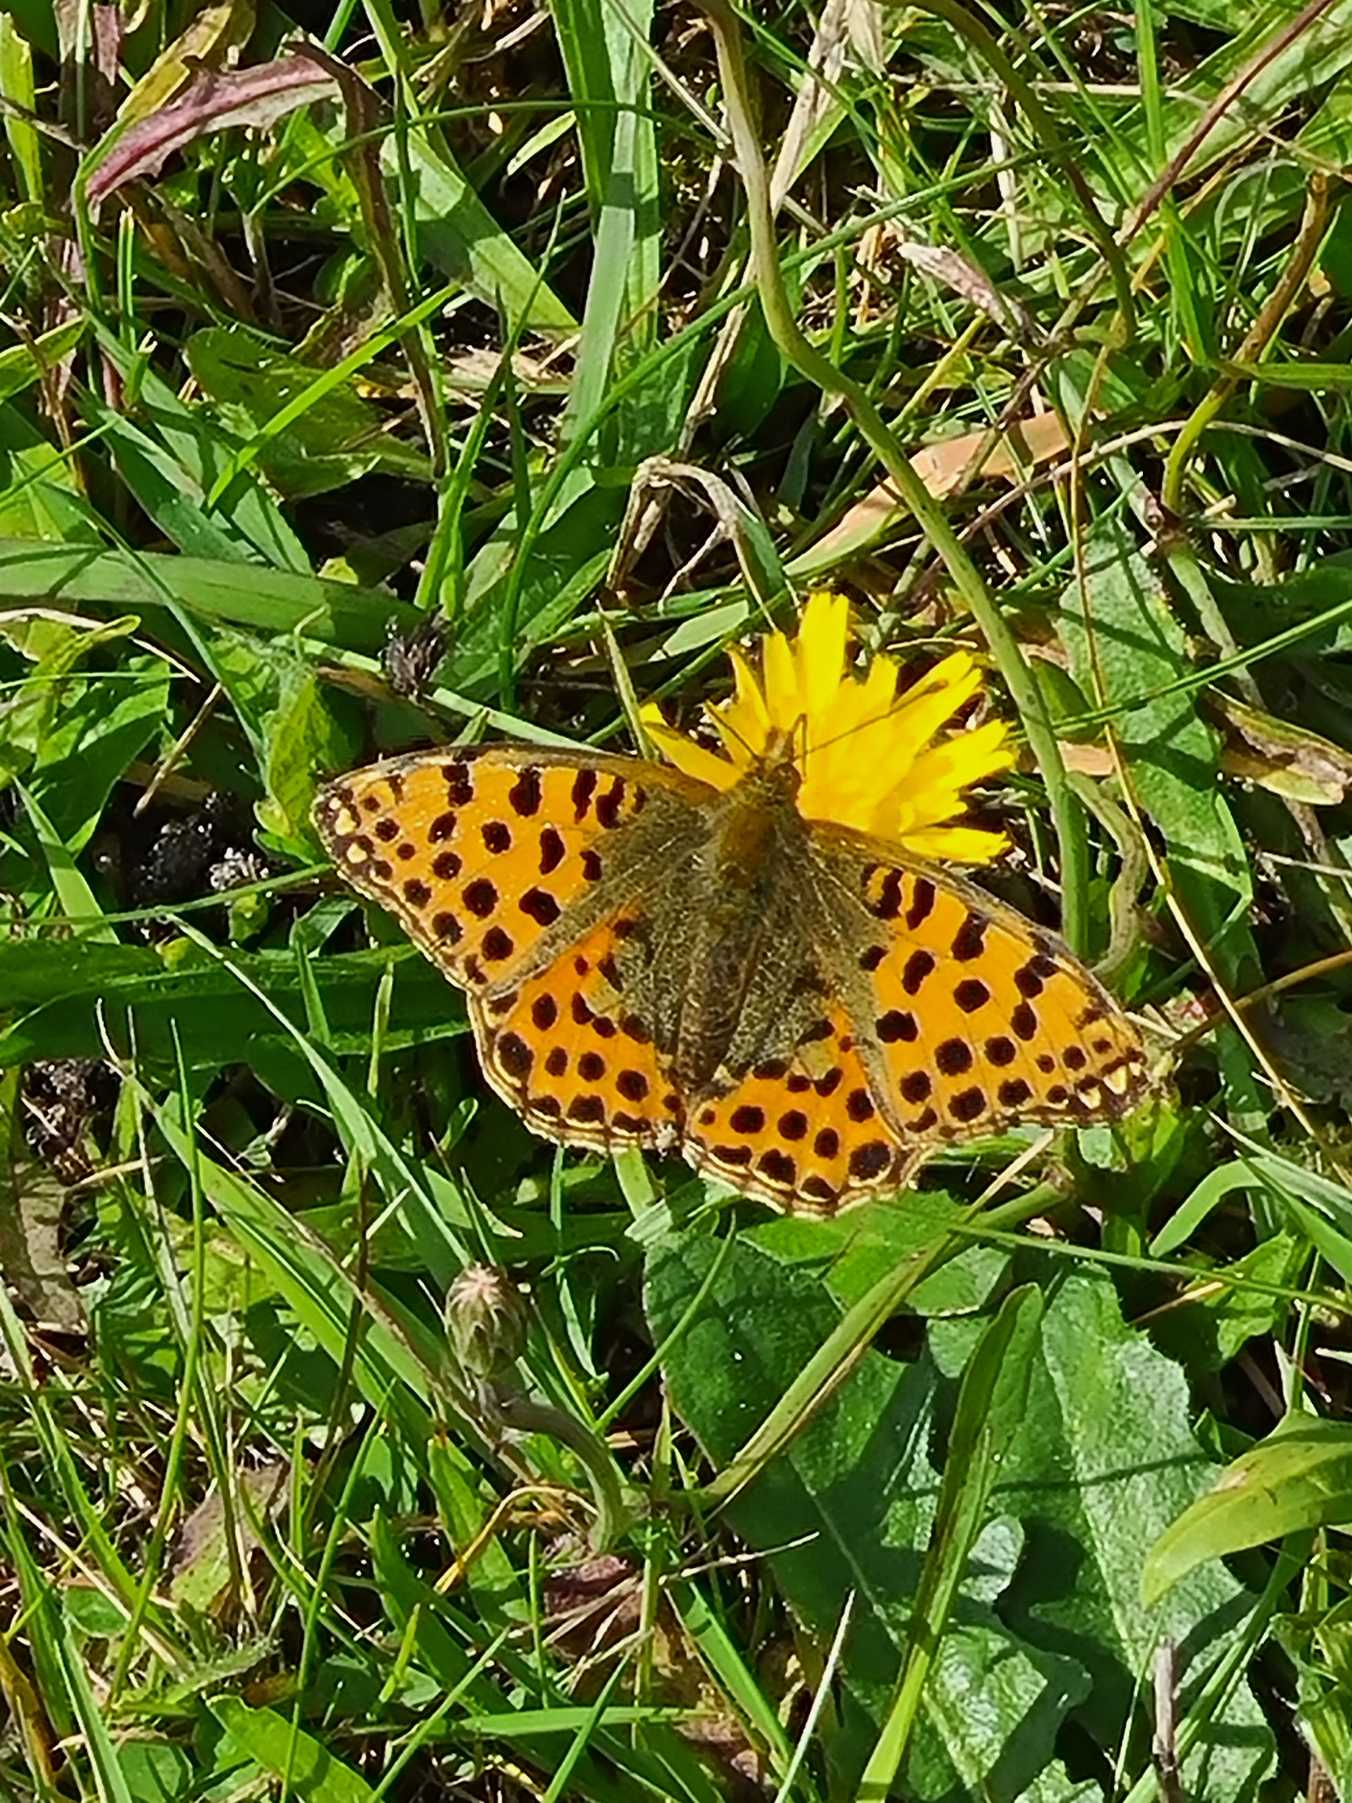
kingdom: Animalia
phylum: Arthropoda
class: Insecta
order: Lepidoptera
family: Nymphalidae
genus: Issoria
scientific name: Issoria lathonia
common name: Storplettet perlemorsommerfugl
